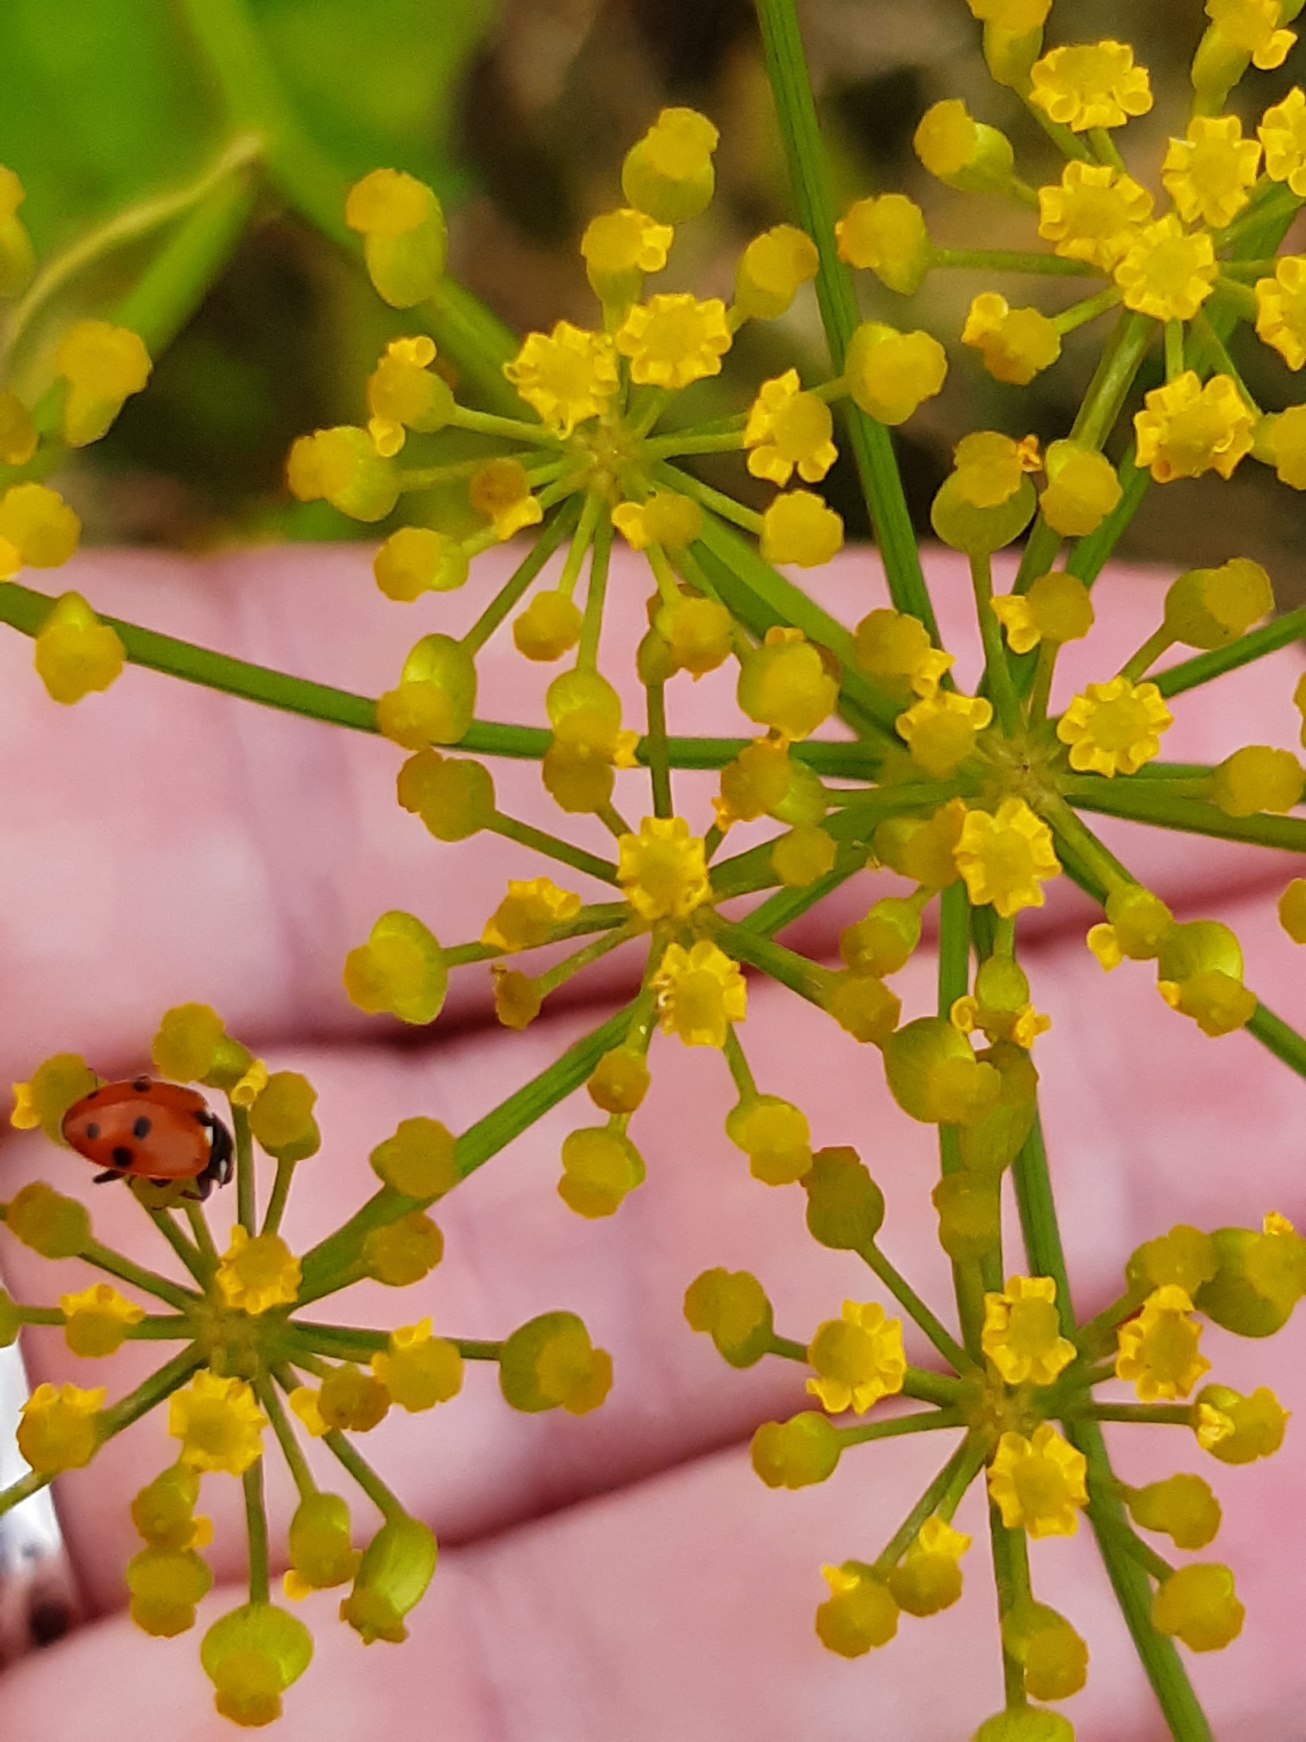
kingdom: Animalia
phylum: Arthropoda
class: Insecta
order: Coleoptera
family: Coccinellidae
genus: Hippodamia
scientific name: Hippodamia variegata
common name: Adonis' mariehøne
